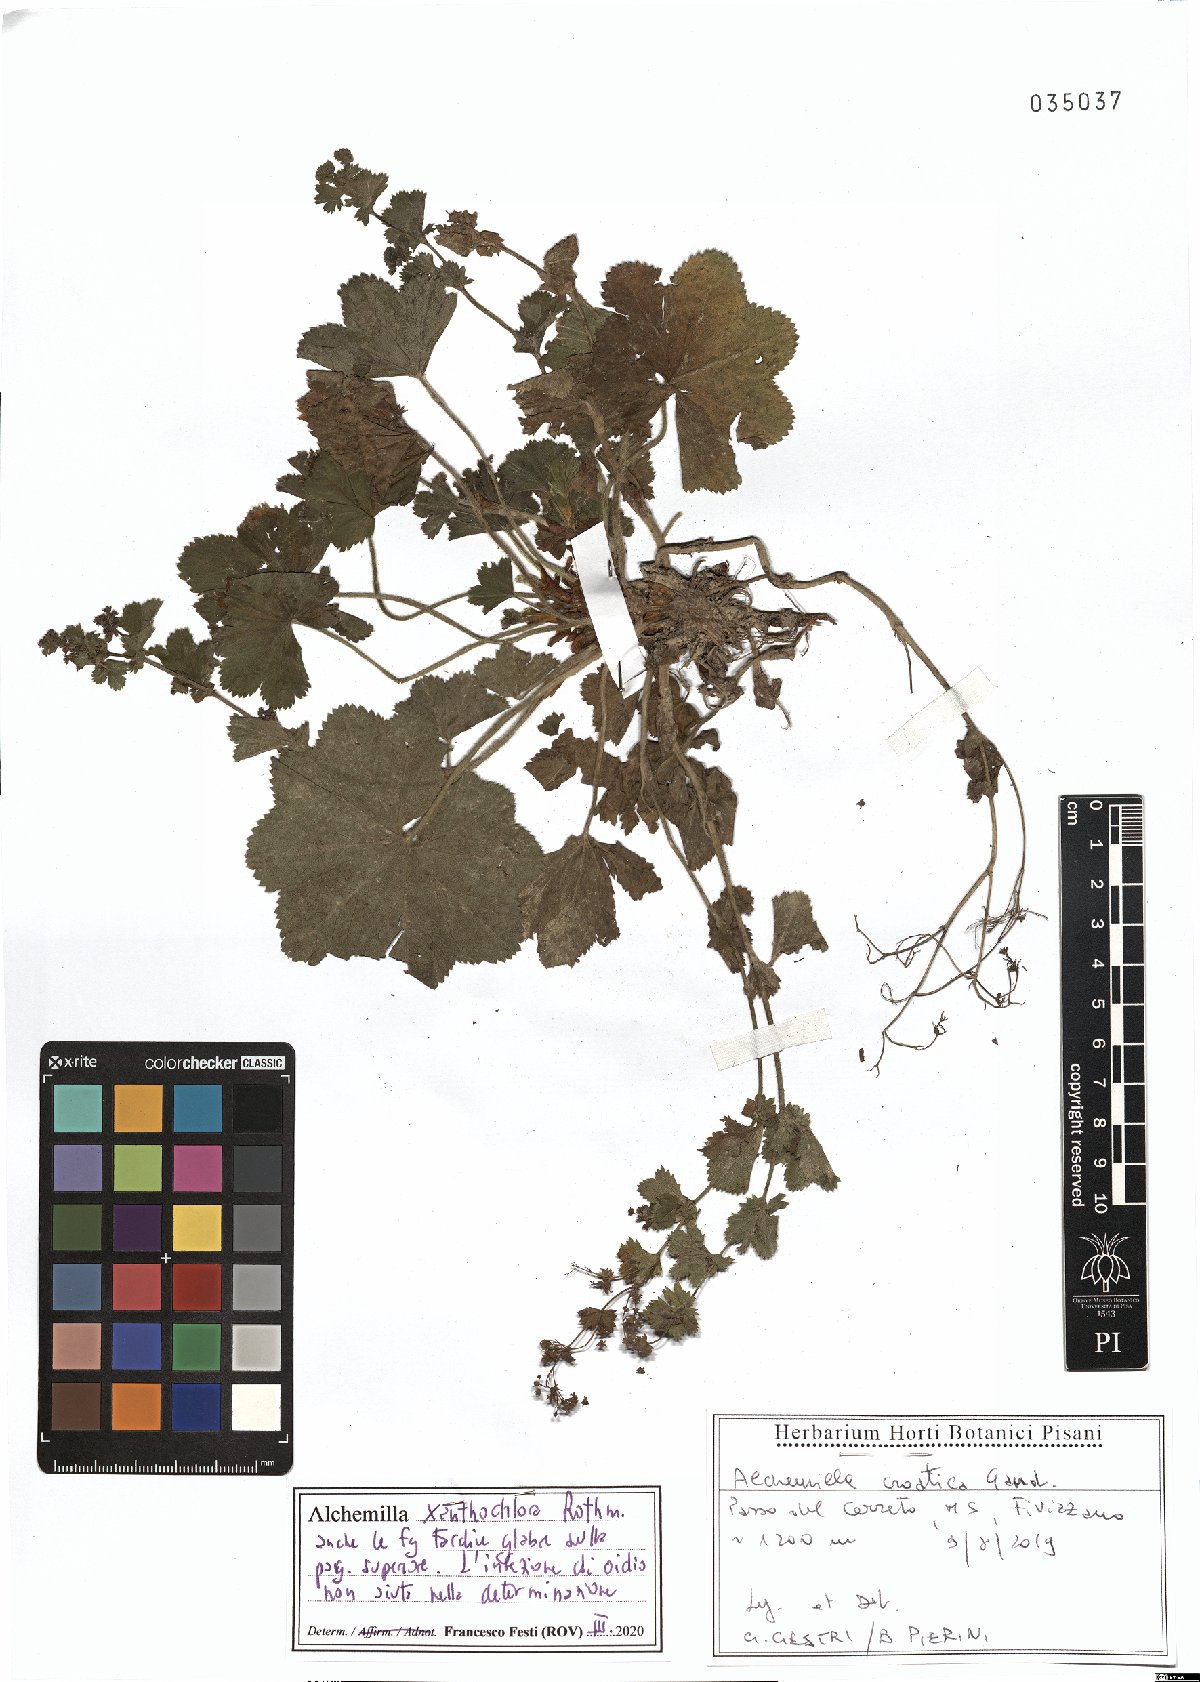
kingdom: Plantae
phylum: Tracheophyta
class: Magnoliopsida
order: Rosales
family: Rosaceae
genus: Alchemilla
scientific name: Alchemilla xanthochlora
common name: Intermediate lady's-mantle
